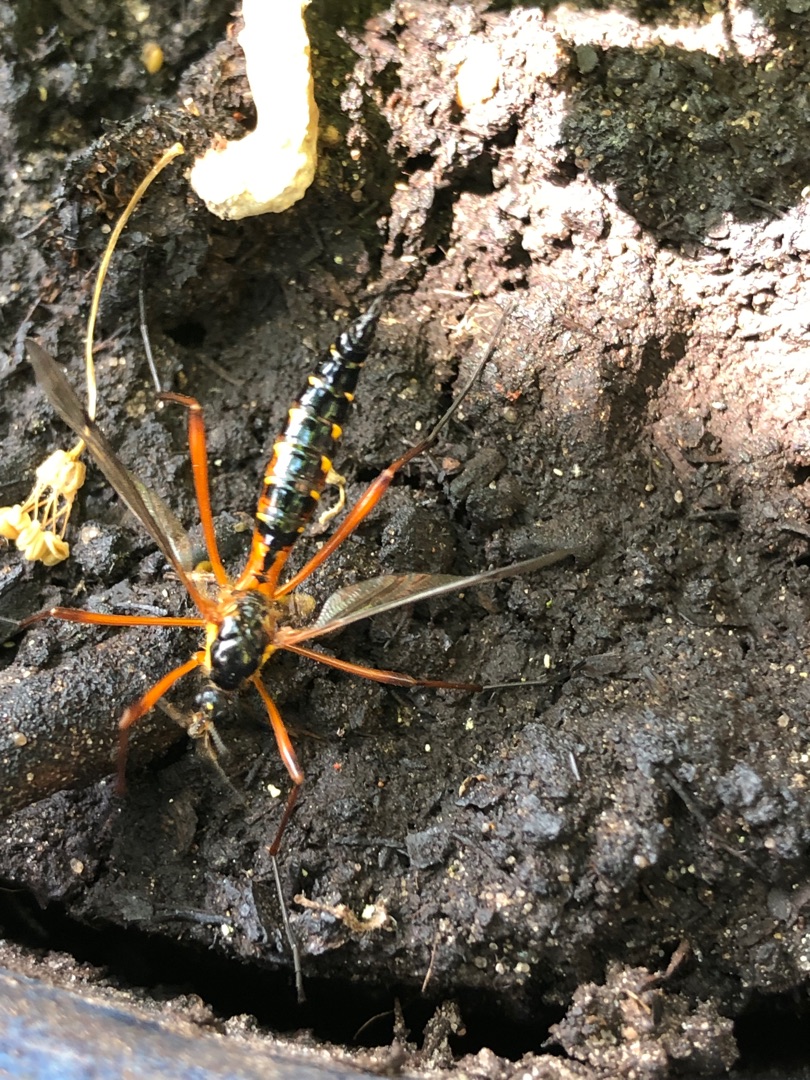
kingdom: Animalia
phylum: Arthropoda
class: Insecta
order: Diptera
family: Tipulidae
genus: Ctenophora
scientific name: Ctenophora pectinicornis
